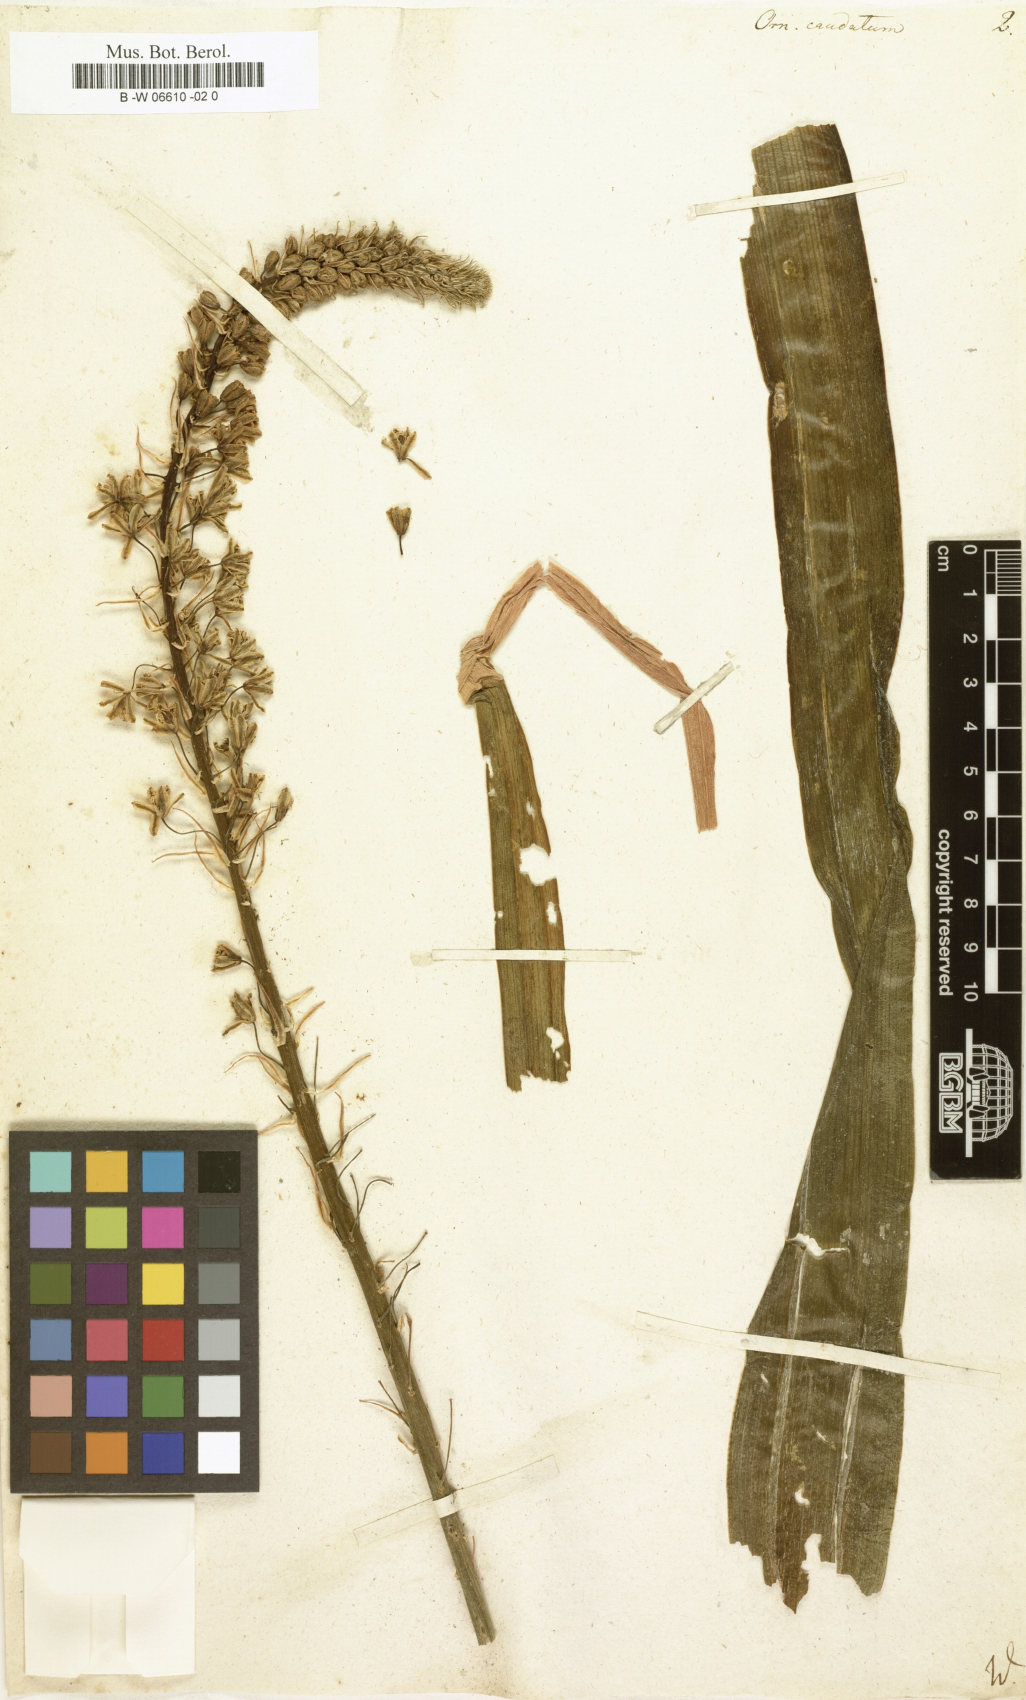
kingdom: Plantae
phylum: Tracheophyta
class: Liliopsida
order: Asparagales
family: Asparagaceae
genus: Albuca
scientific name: Albuca
